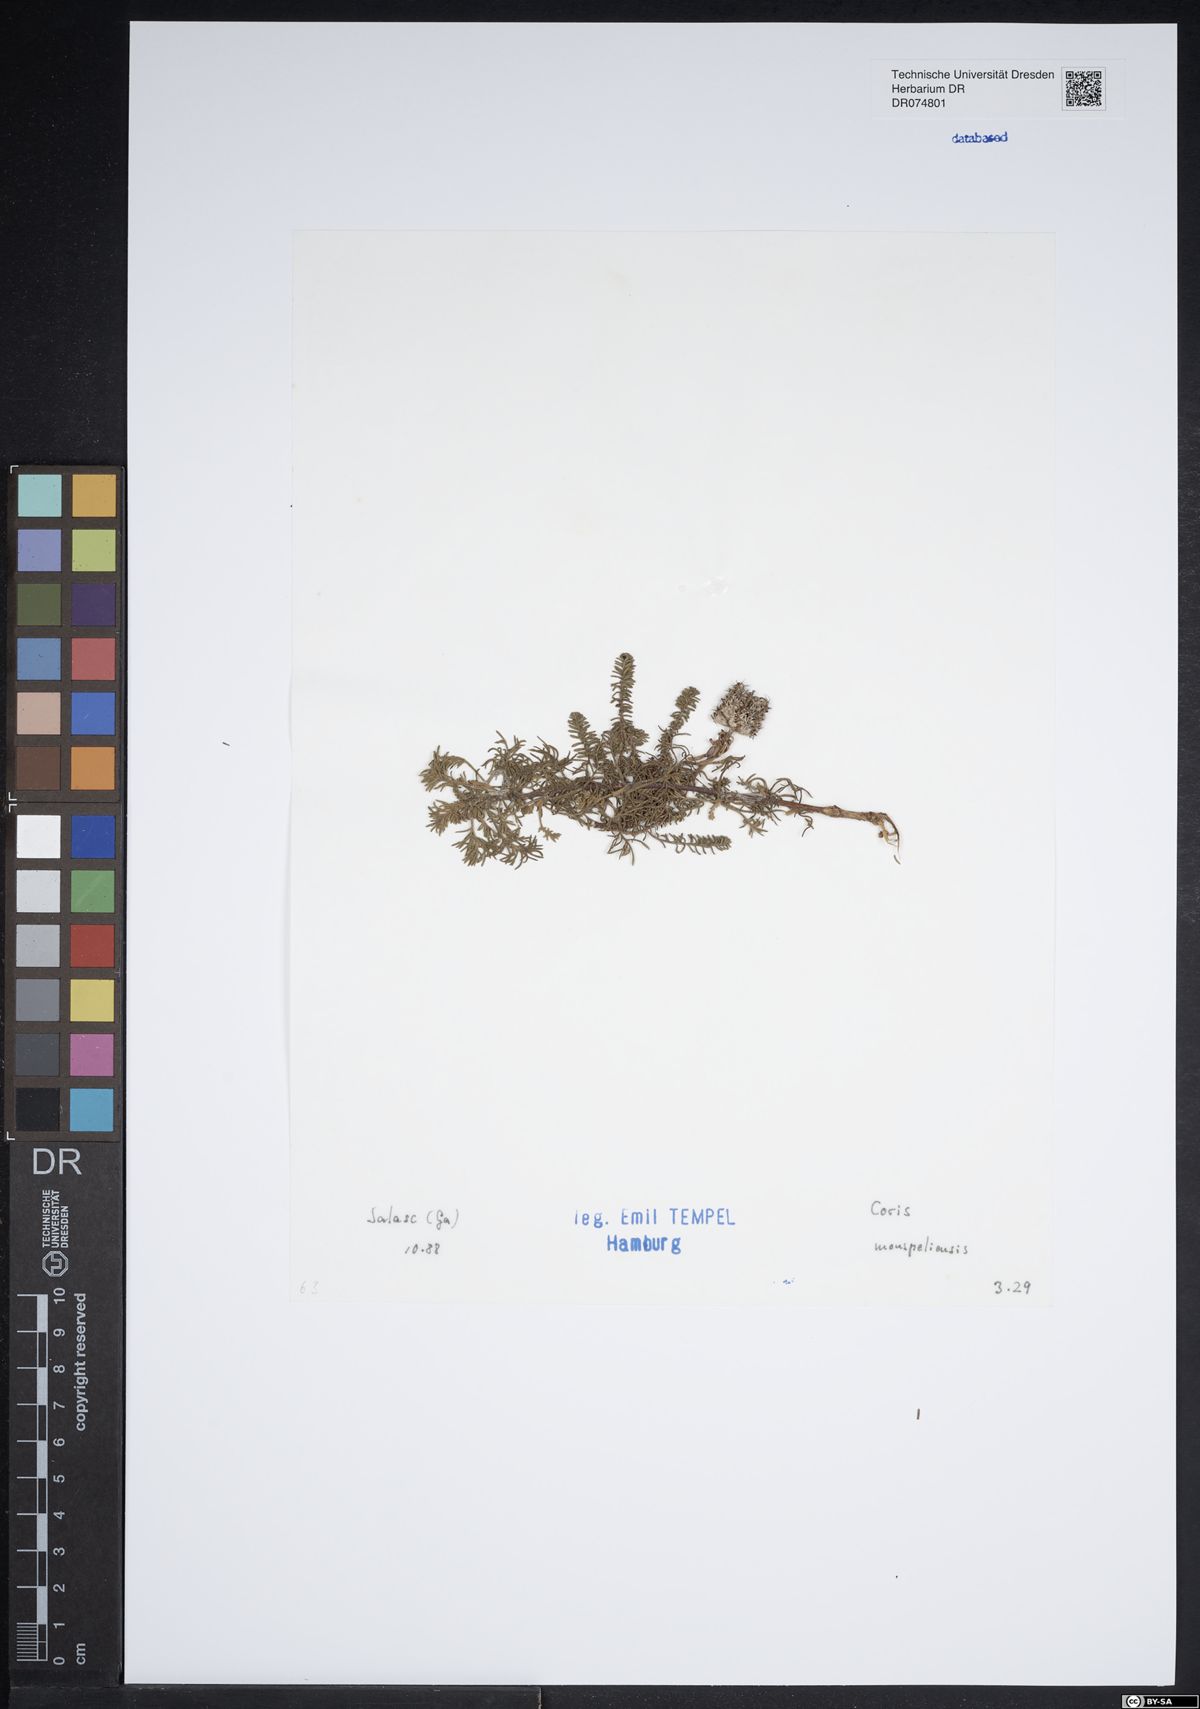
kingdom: Plantae
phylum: Tracheophyta
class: Magnoliopsida
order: Ericales
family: Primulaceae
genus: Coris
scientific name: Coris monspeliensis
